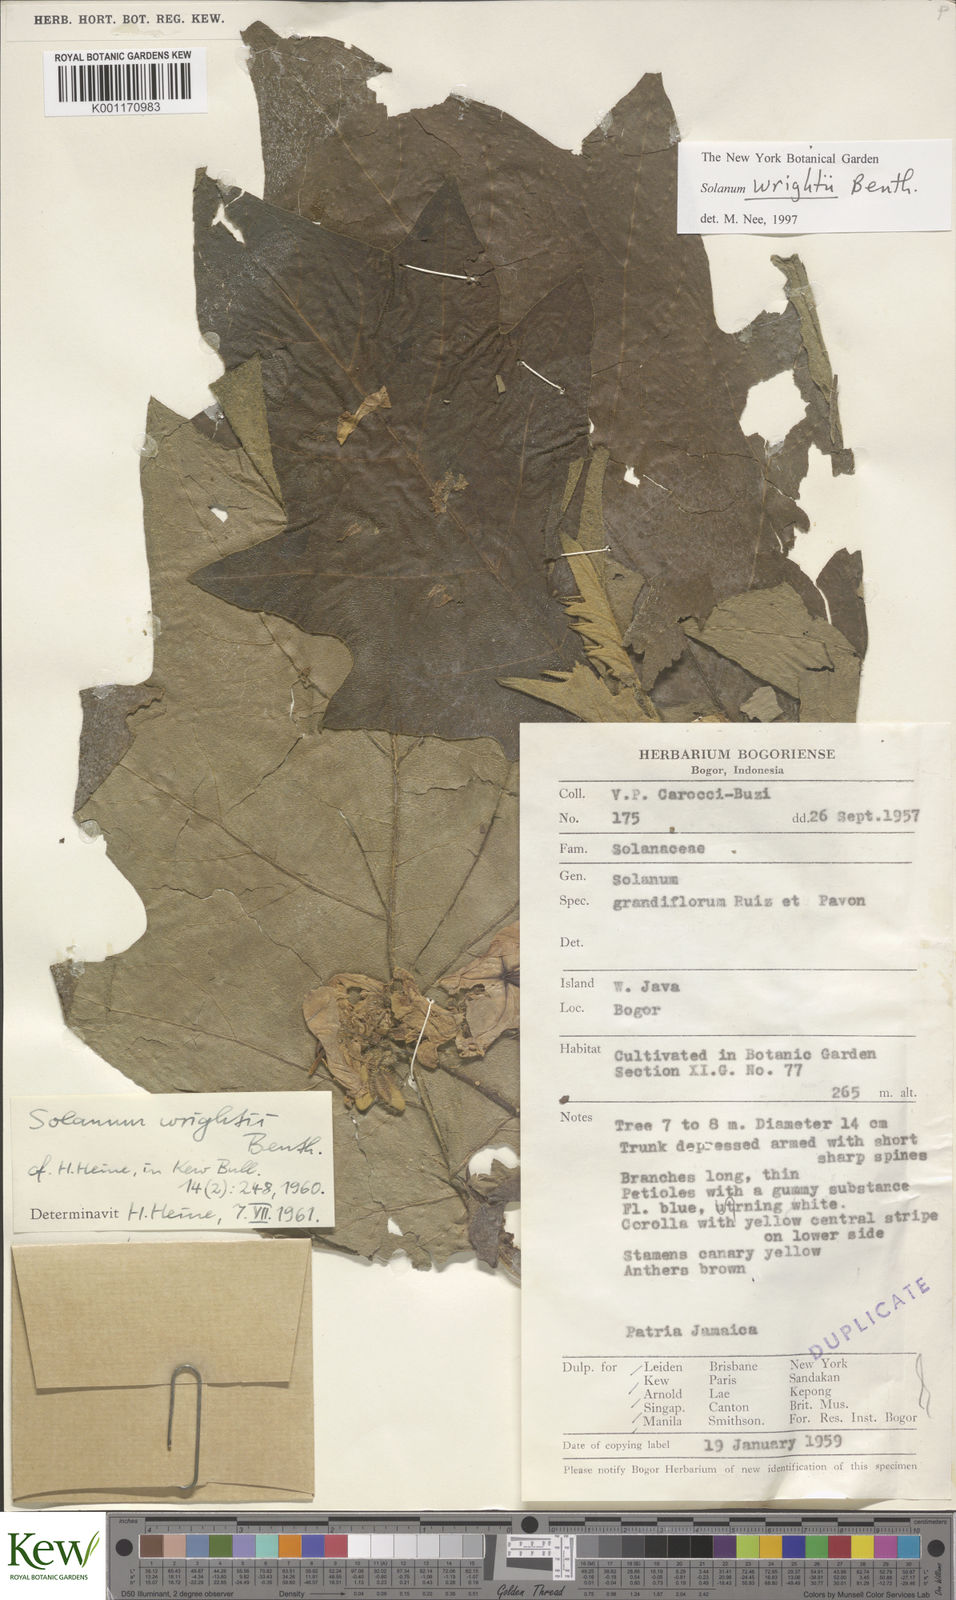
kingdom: Plantae
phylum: Tracheophyta
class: Magnoliopsida
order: Solanales
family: Solanaceae
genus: Solanum
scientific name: Solanum wrightii
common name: Brazilian potato-tree
